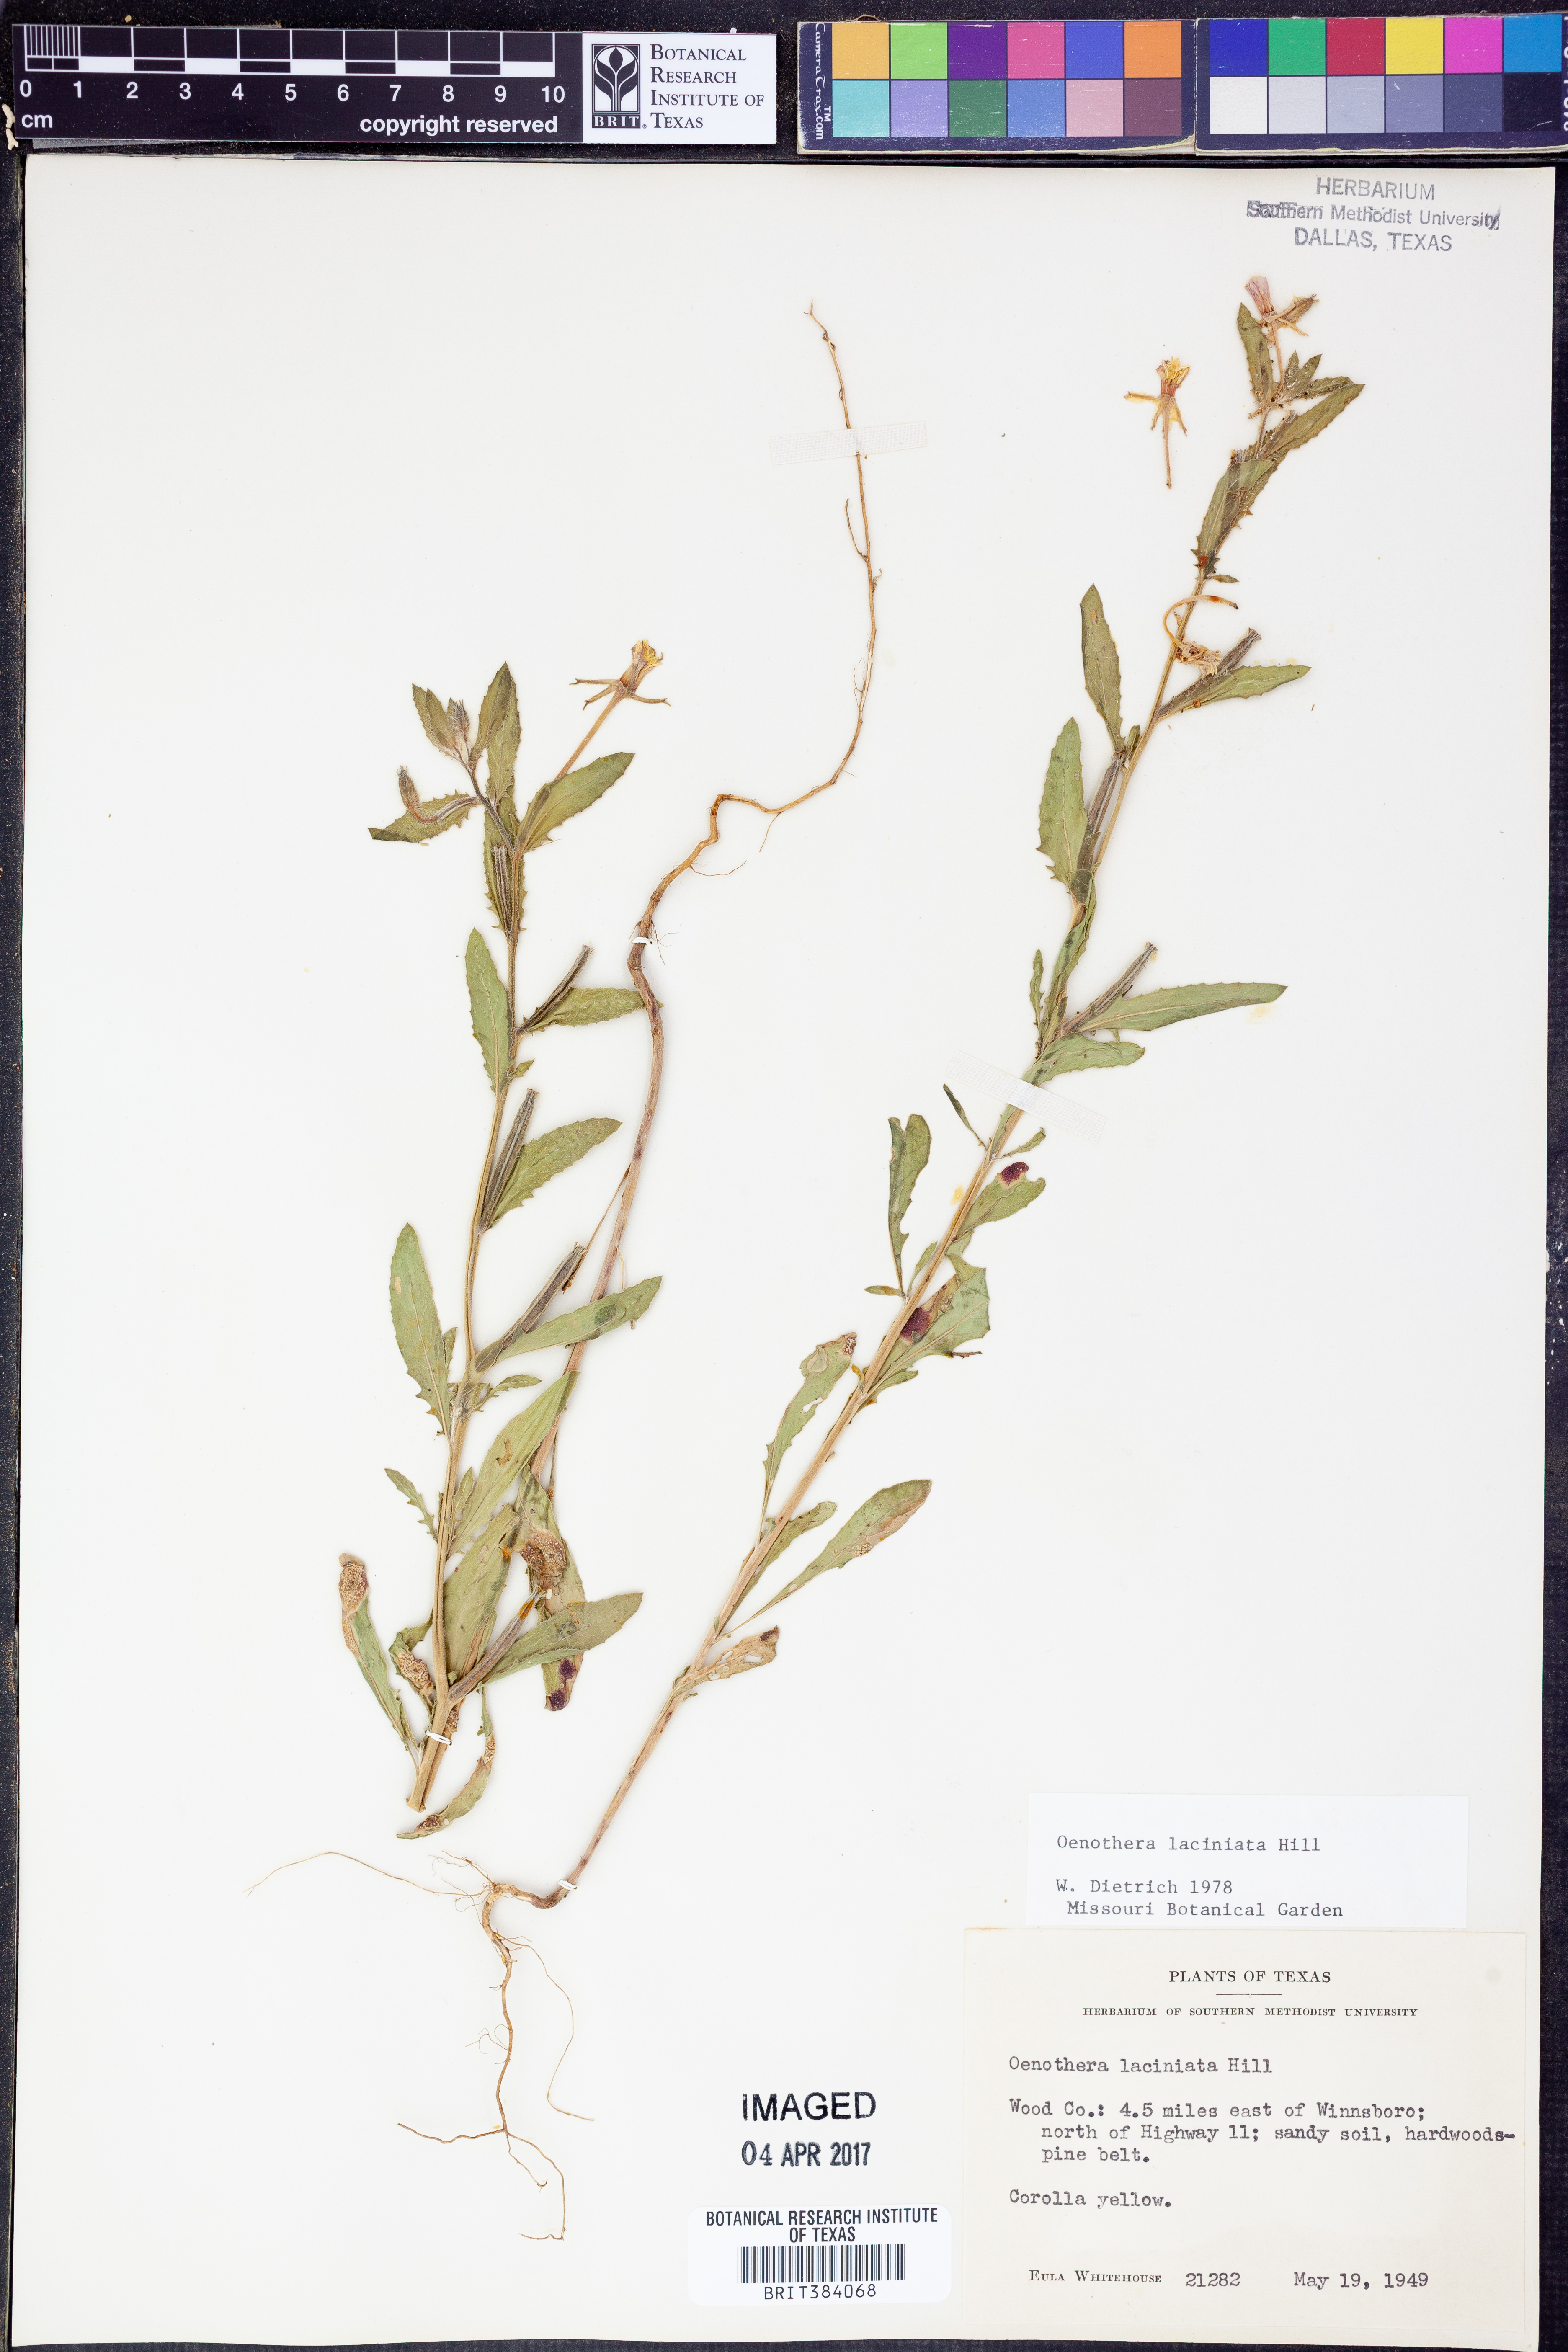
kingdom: Plantae
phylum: Tracheophyta
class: Magnoliopsida
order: Myrtales
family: Onagraceae
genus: Oenothera
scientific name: Oenothera laciniata
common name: Cut-leaved evening-primrose
